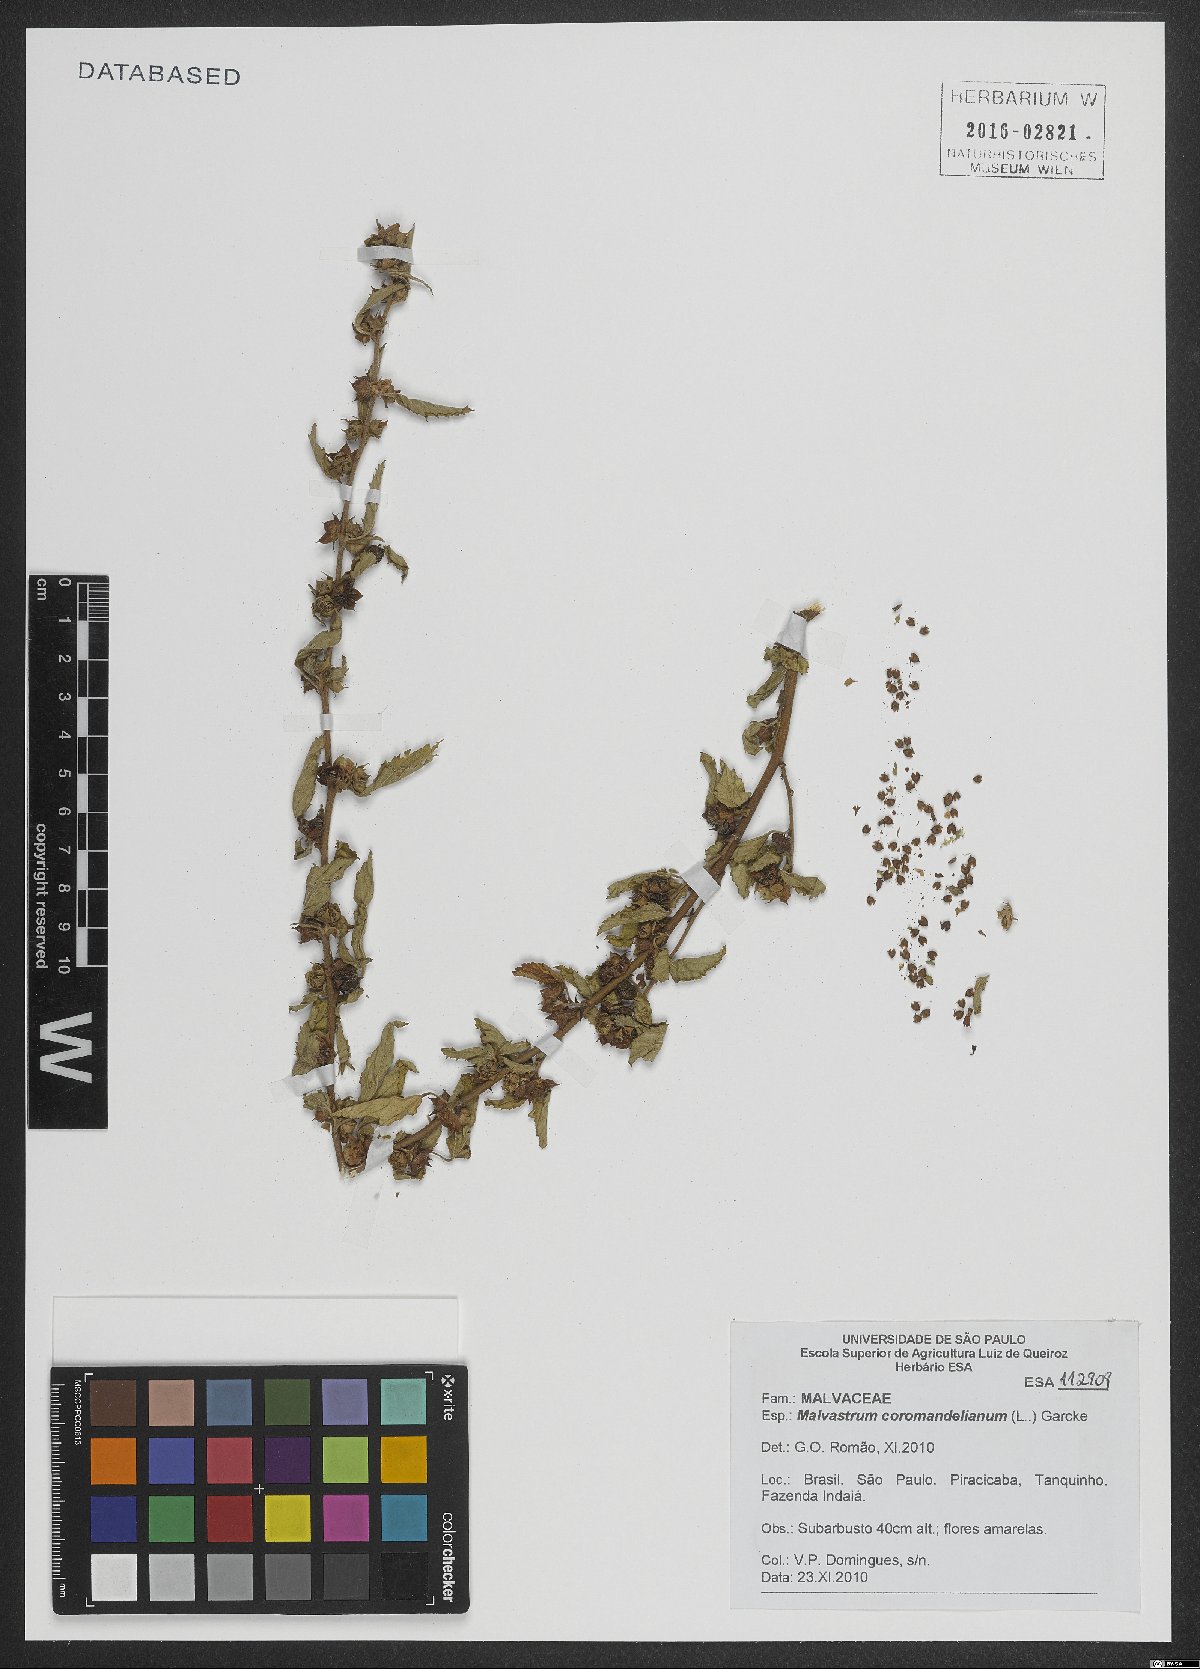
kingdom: Plantae
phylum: Tracheophyta
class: Magnoliopsida
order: Malvales
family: Malvaceae
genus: Malvastrum
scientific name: Malvastrum coromandelianum
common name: Threelobe false mallow
